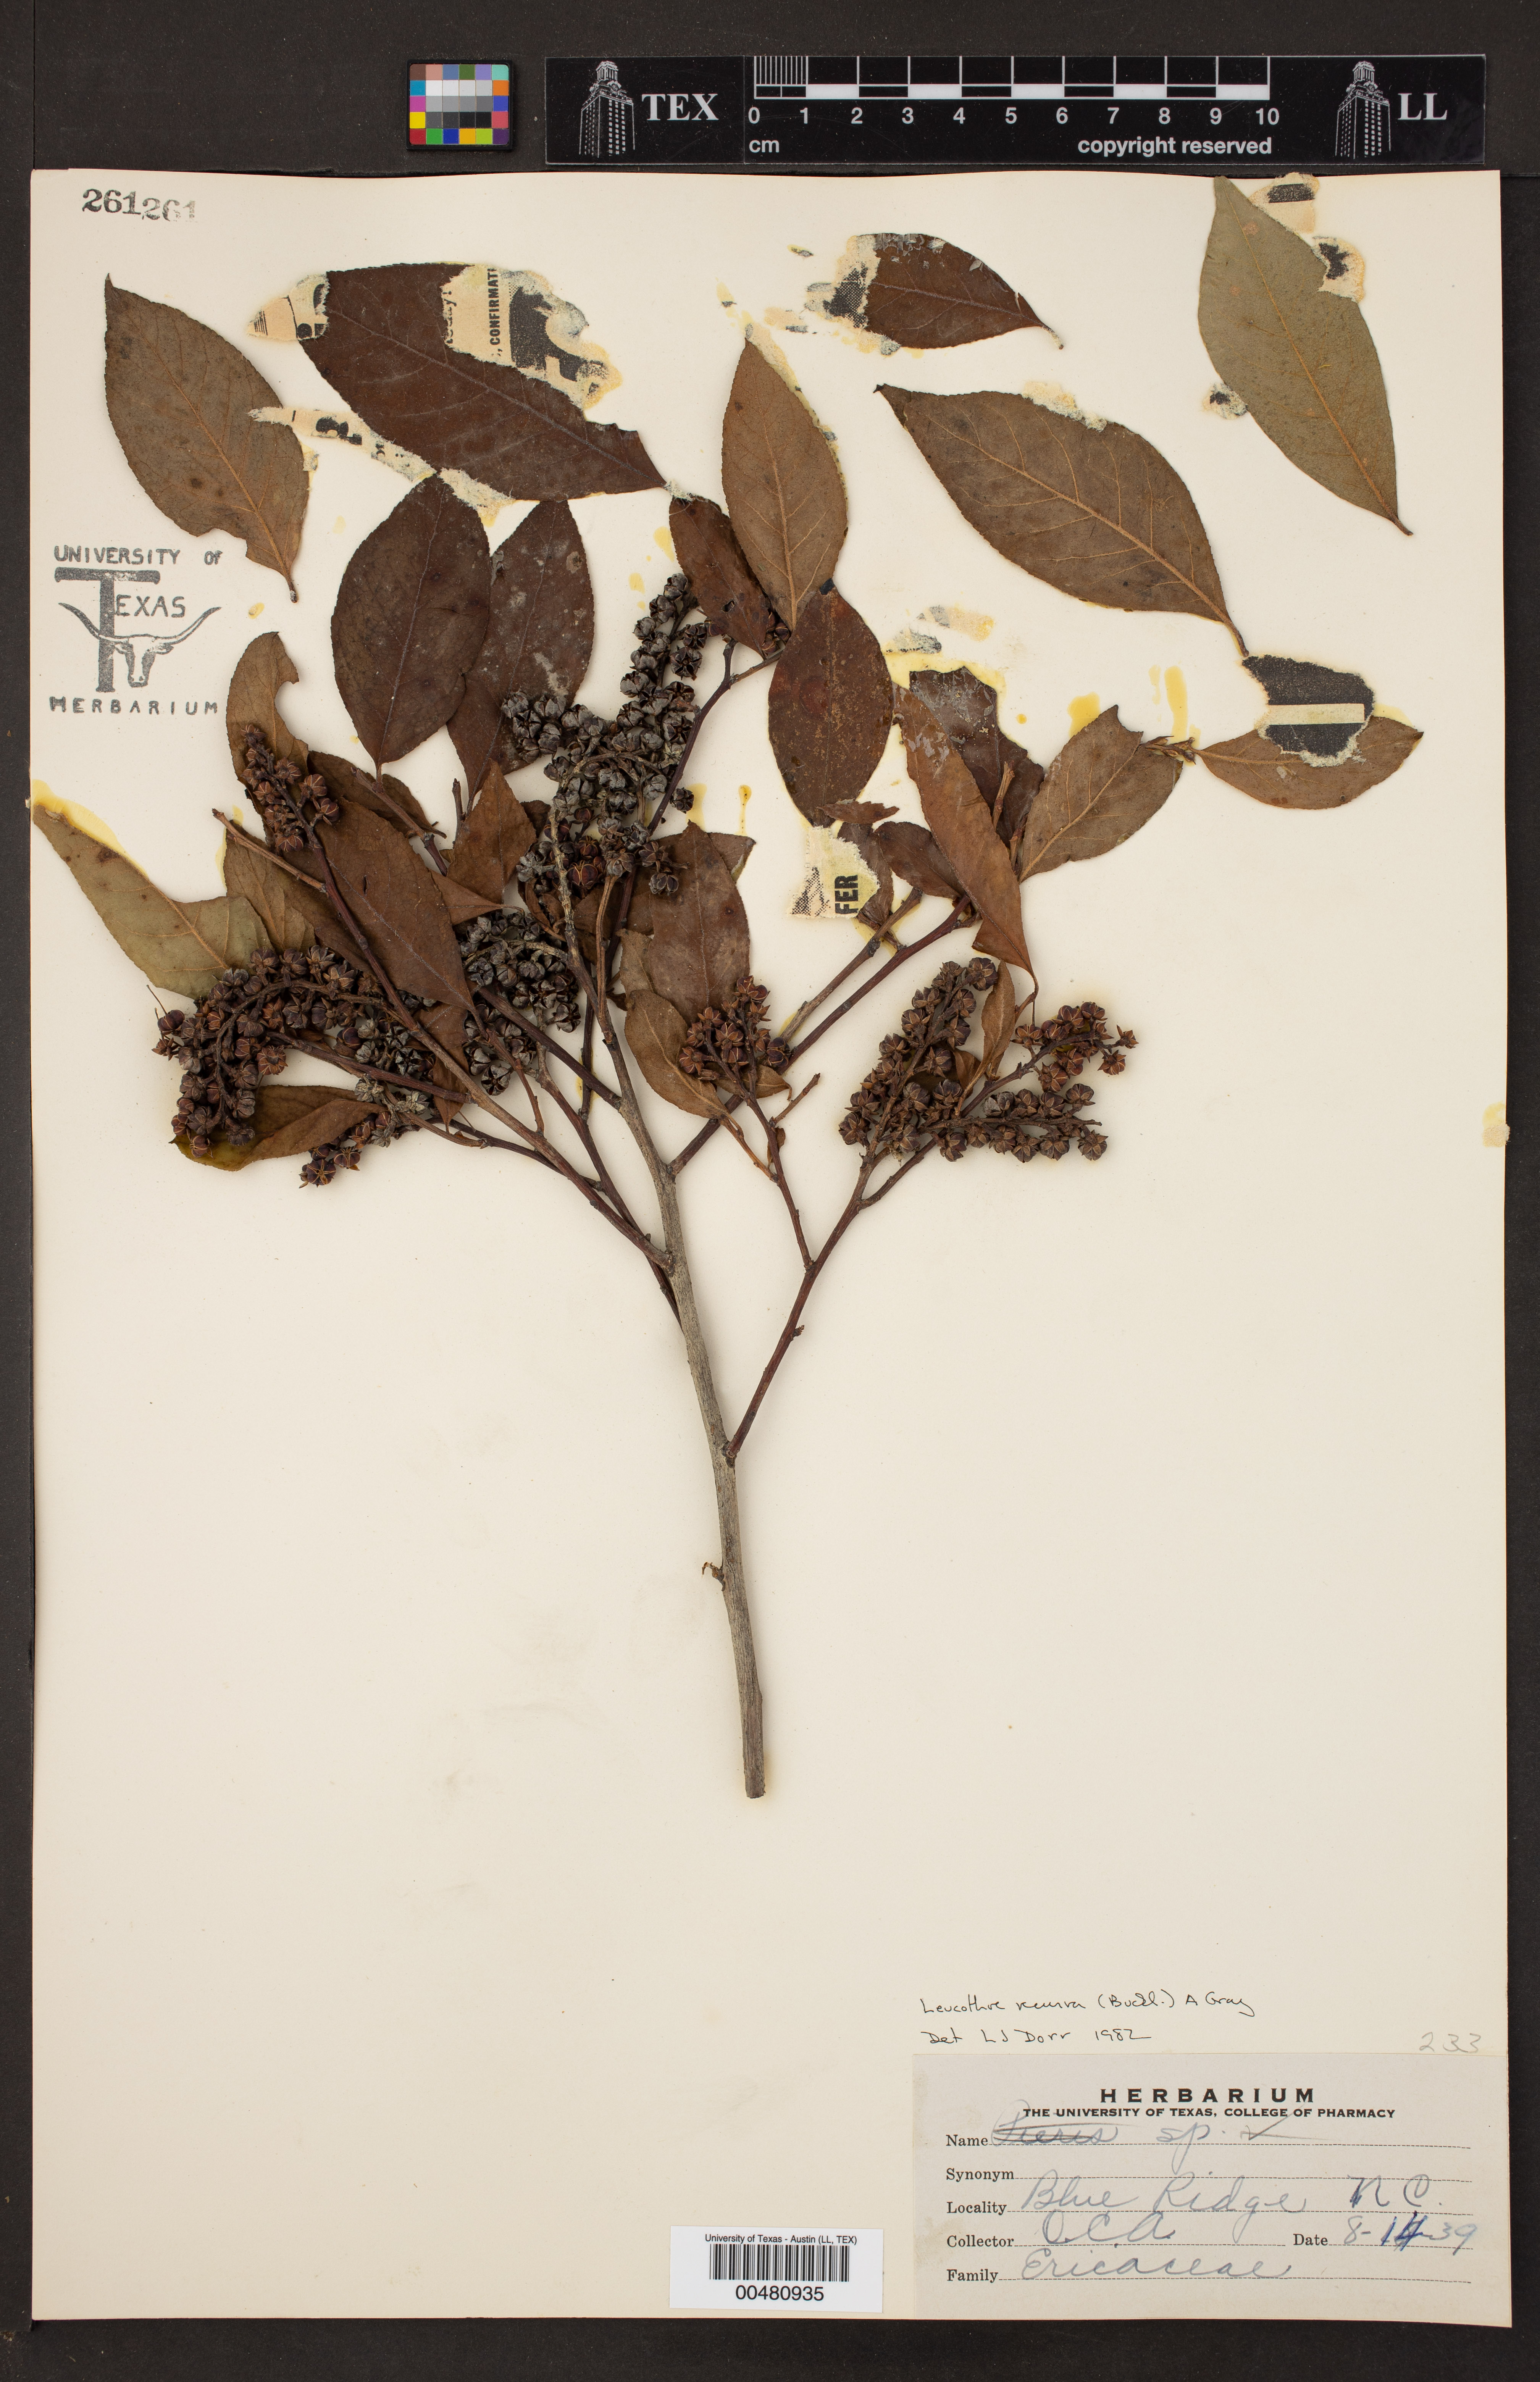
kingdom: Plantae
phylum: Tracheophyta
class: Magnoliopsida
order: Ericales
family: Ericaceae
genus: Eubotrys
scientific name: Eubotrys recurva
